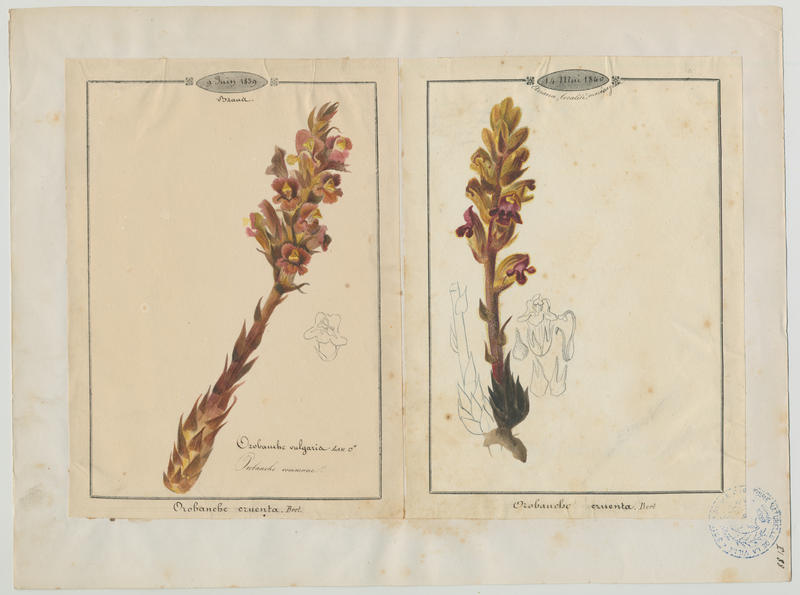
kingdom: Plantae
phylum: Tracheophyta
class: Magnoliopsida
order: Lamiales
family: Orobanchaceae
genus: Orobanche
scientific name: Orobanche caryophyllacea
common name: Bedstraw broomrape
